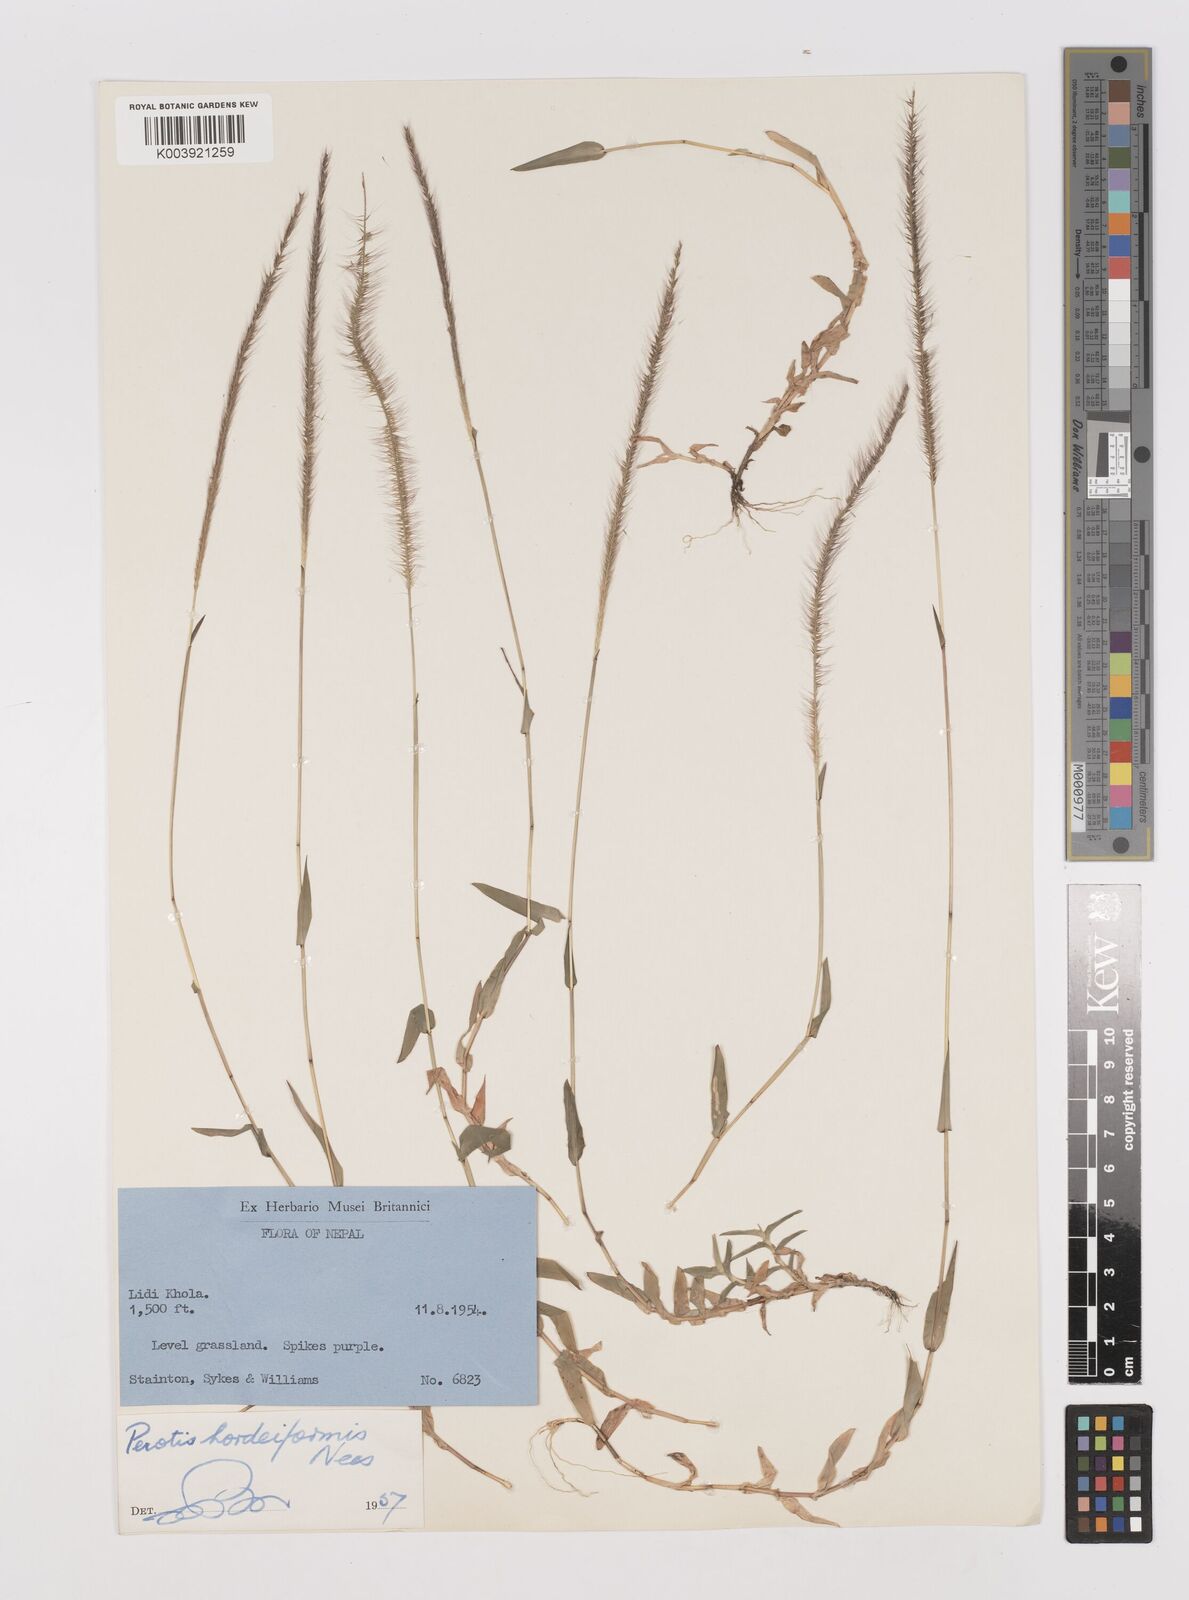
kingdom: Plantae
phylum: Tracheophyta
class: Liliopsida
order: Poales
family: Poaceae
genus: Perotis
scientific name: Perotis hordeiformis
